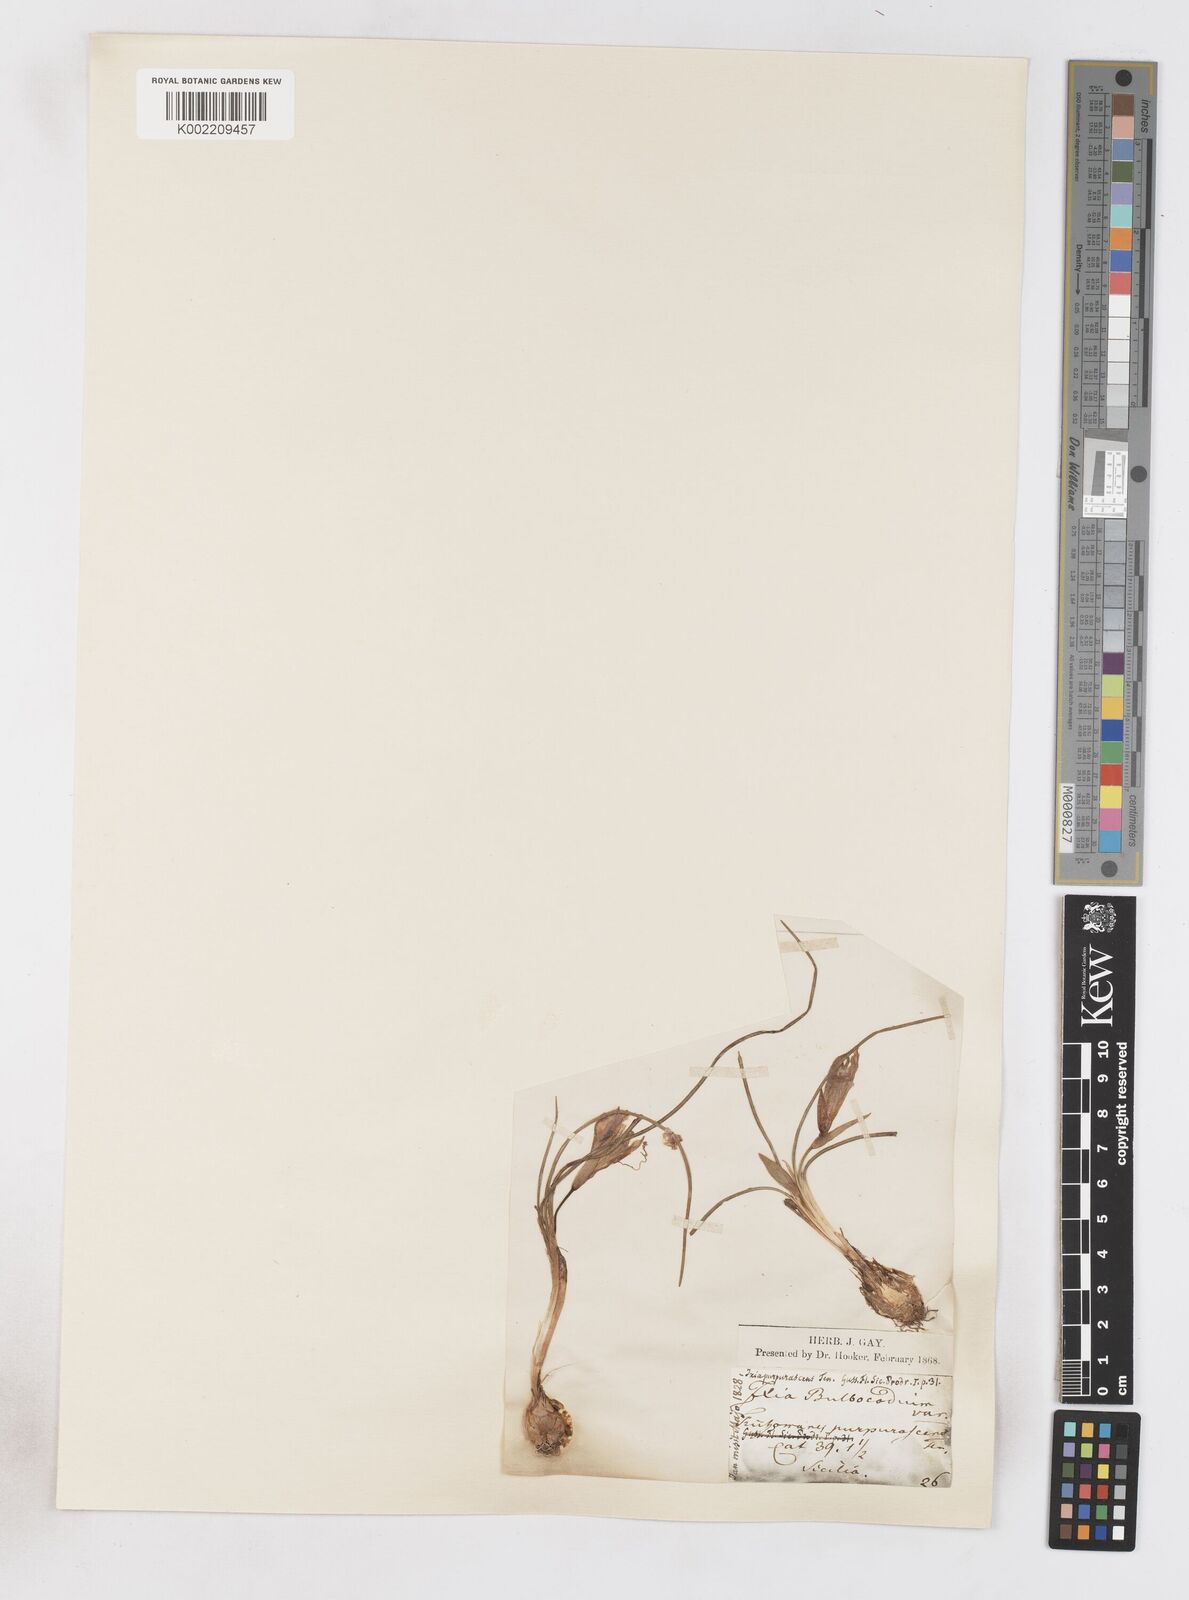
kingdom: Plantae
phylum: Tracheophyta
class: Liliopsida
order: Asparagales
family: Iridaceae
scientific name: Iridaceae
